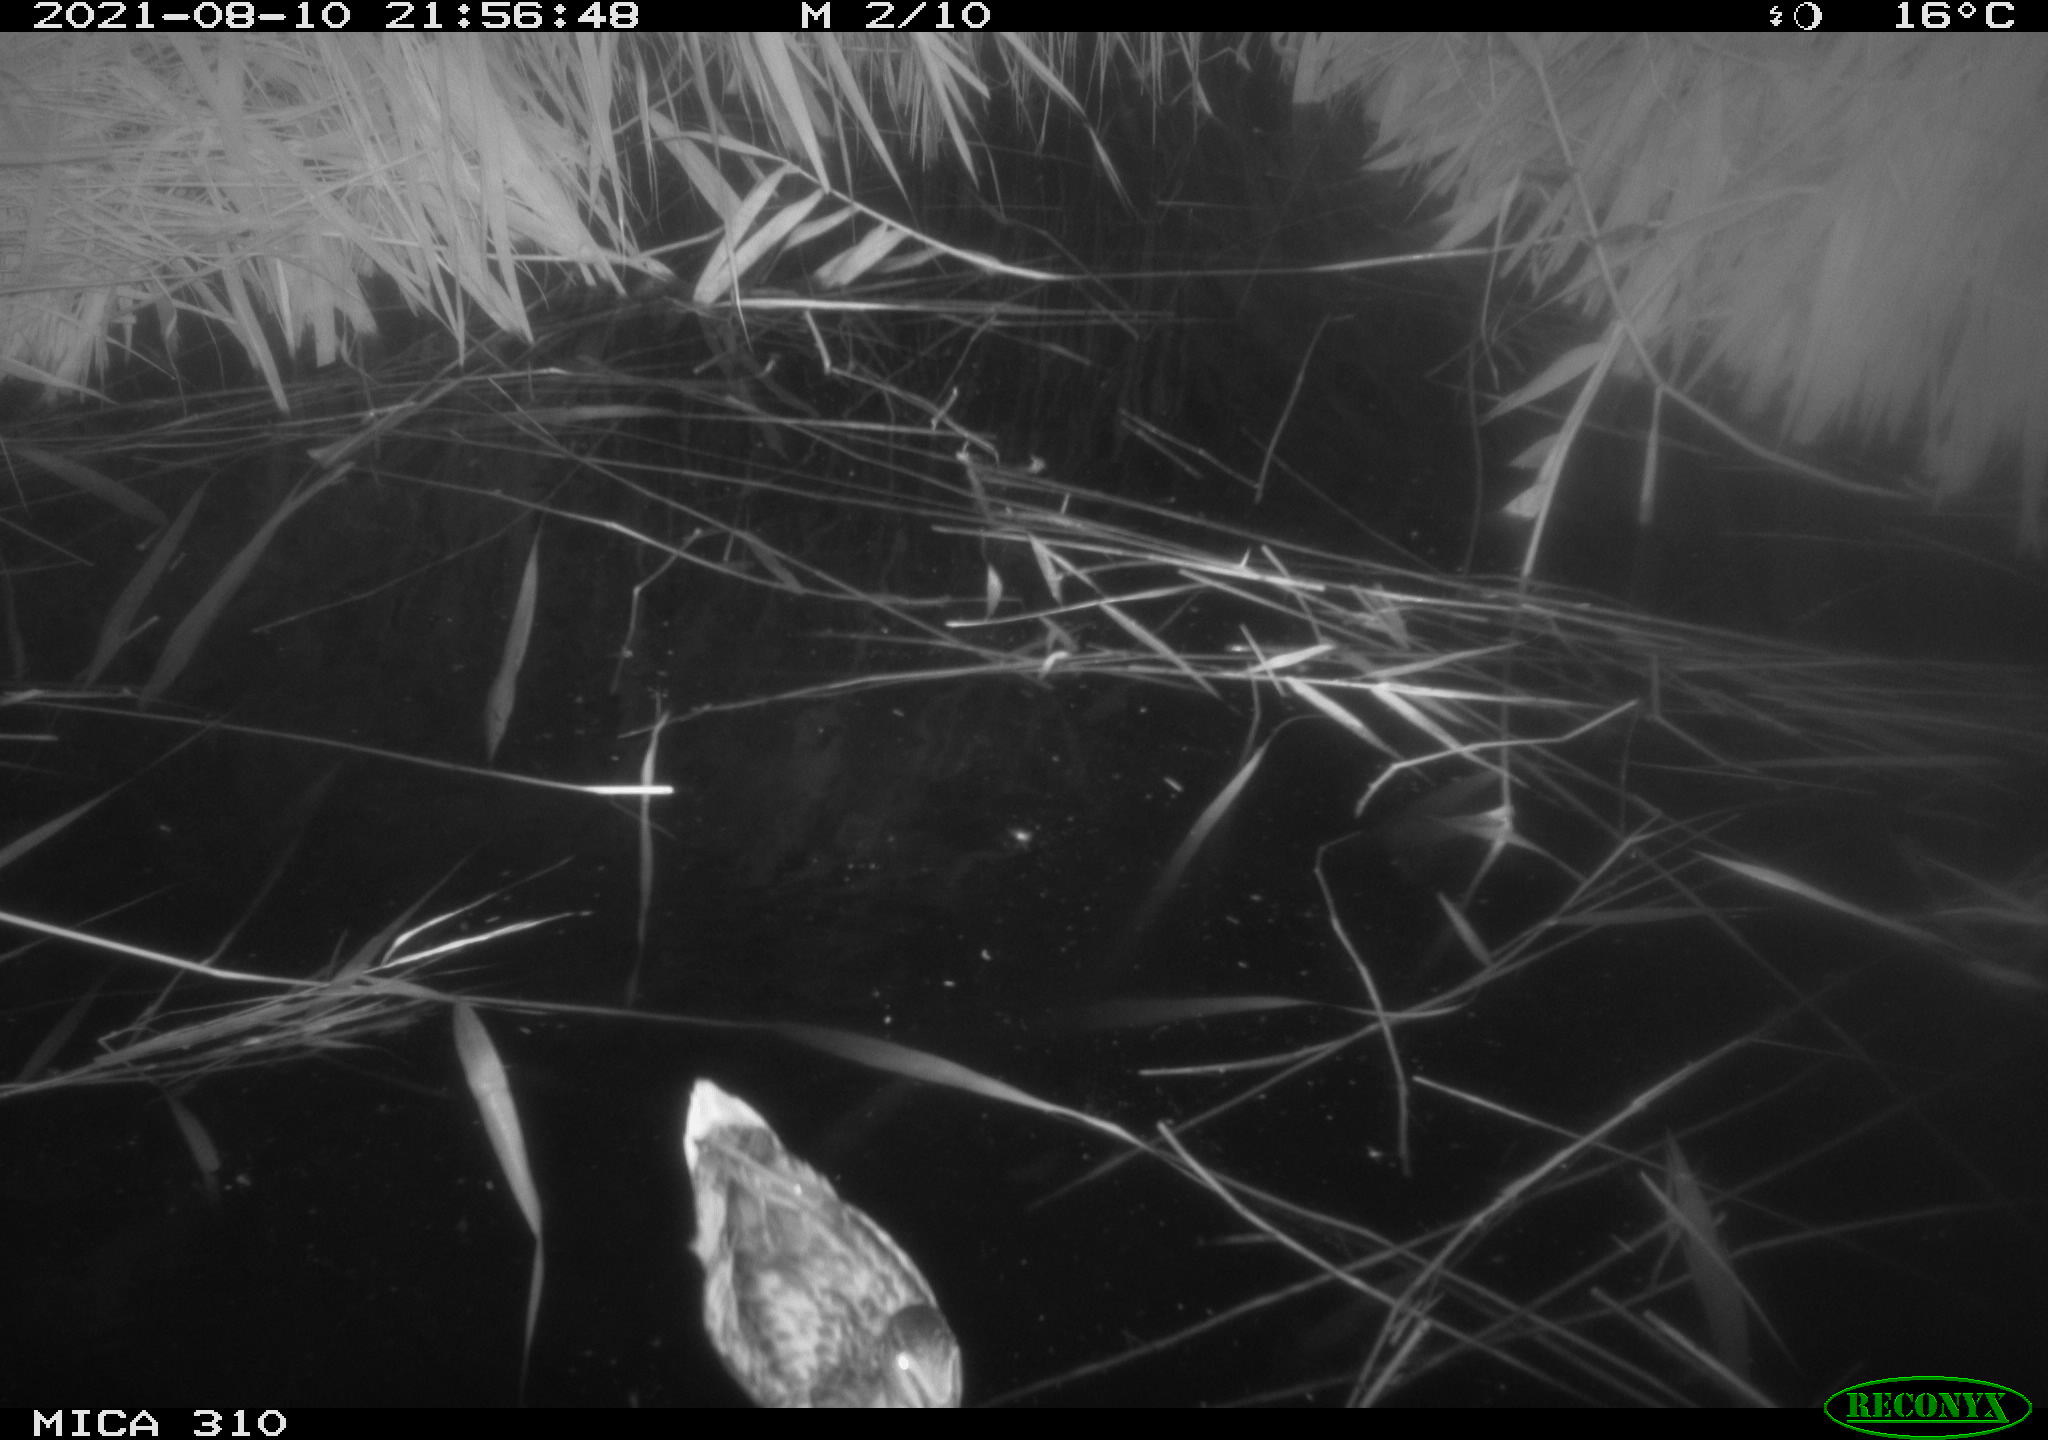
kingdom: Animalia
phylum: Chordata
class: Aves
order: Anseriformes
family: Anatidae
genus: Anas
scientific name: Anas platyrhynchos
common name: Mallard
